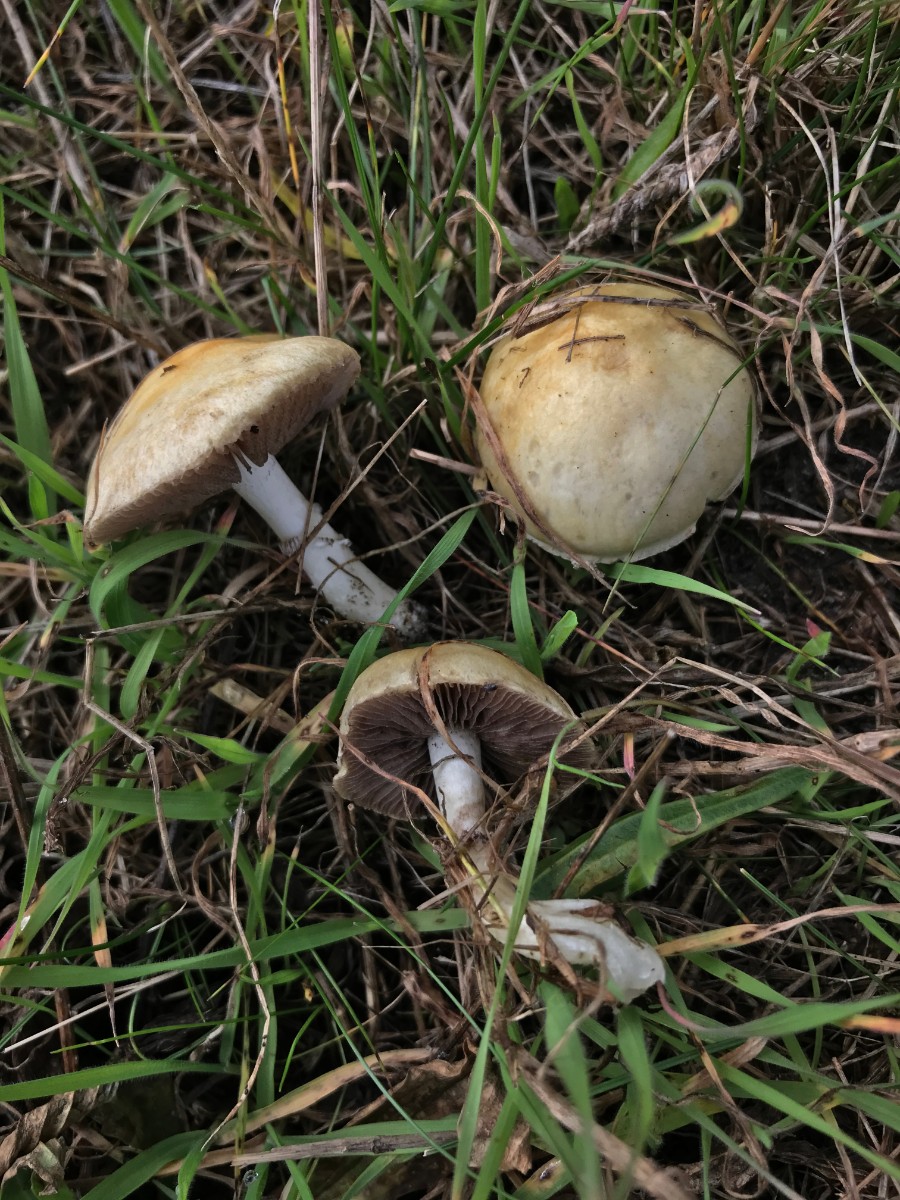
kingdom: Fungi
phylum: Basidiomycota
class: Agaricomycetes
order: Agaricales
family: Hymenogastraceae
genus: Psilocybe
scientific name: Psilocybe coronilla
